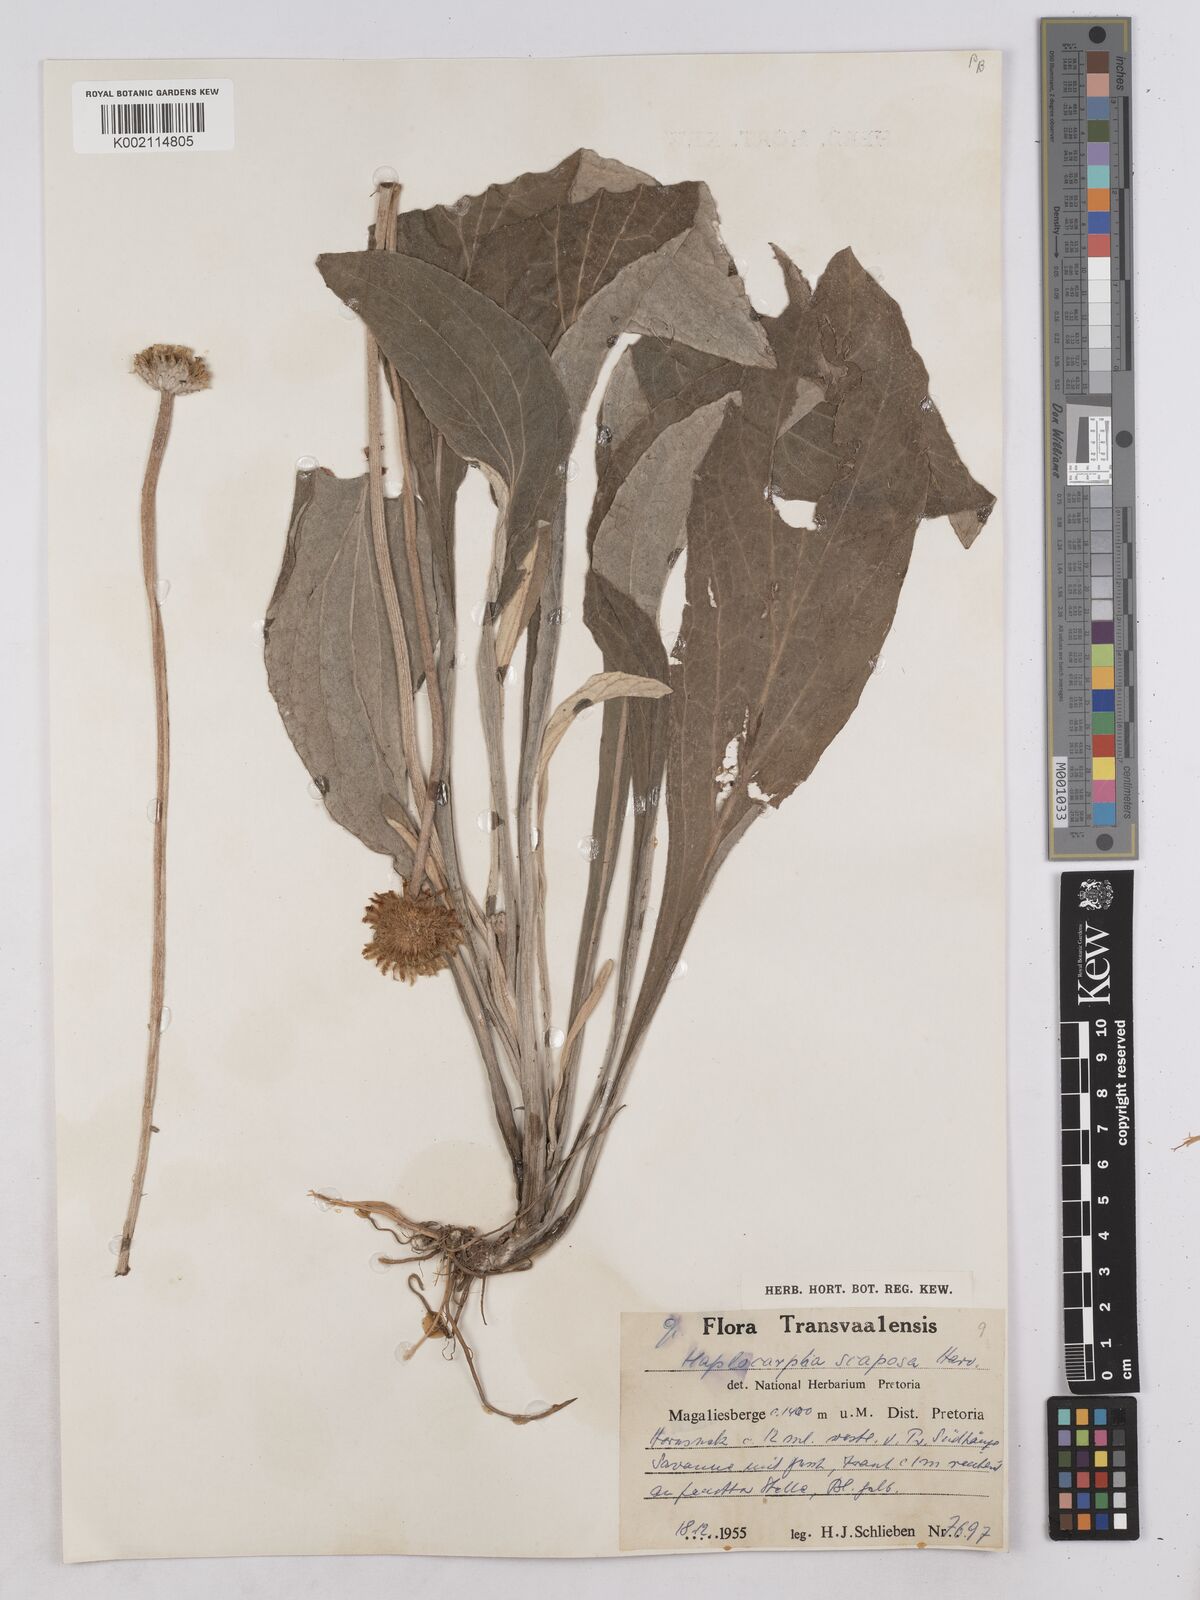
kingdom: Plantae
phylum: Tracheophyta
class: Magnoliopsida
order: Asterales
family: Asteraceae
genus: Haplocarpha
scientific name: Haplocarpha scaposa
